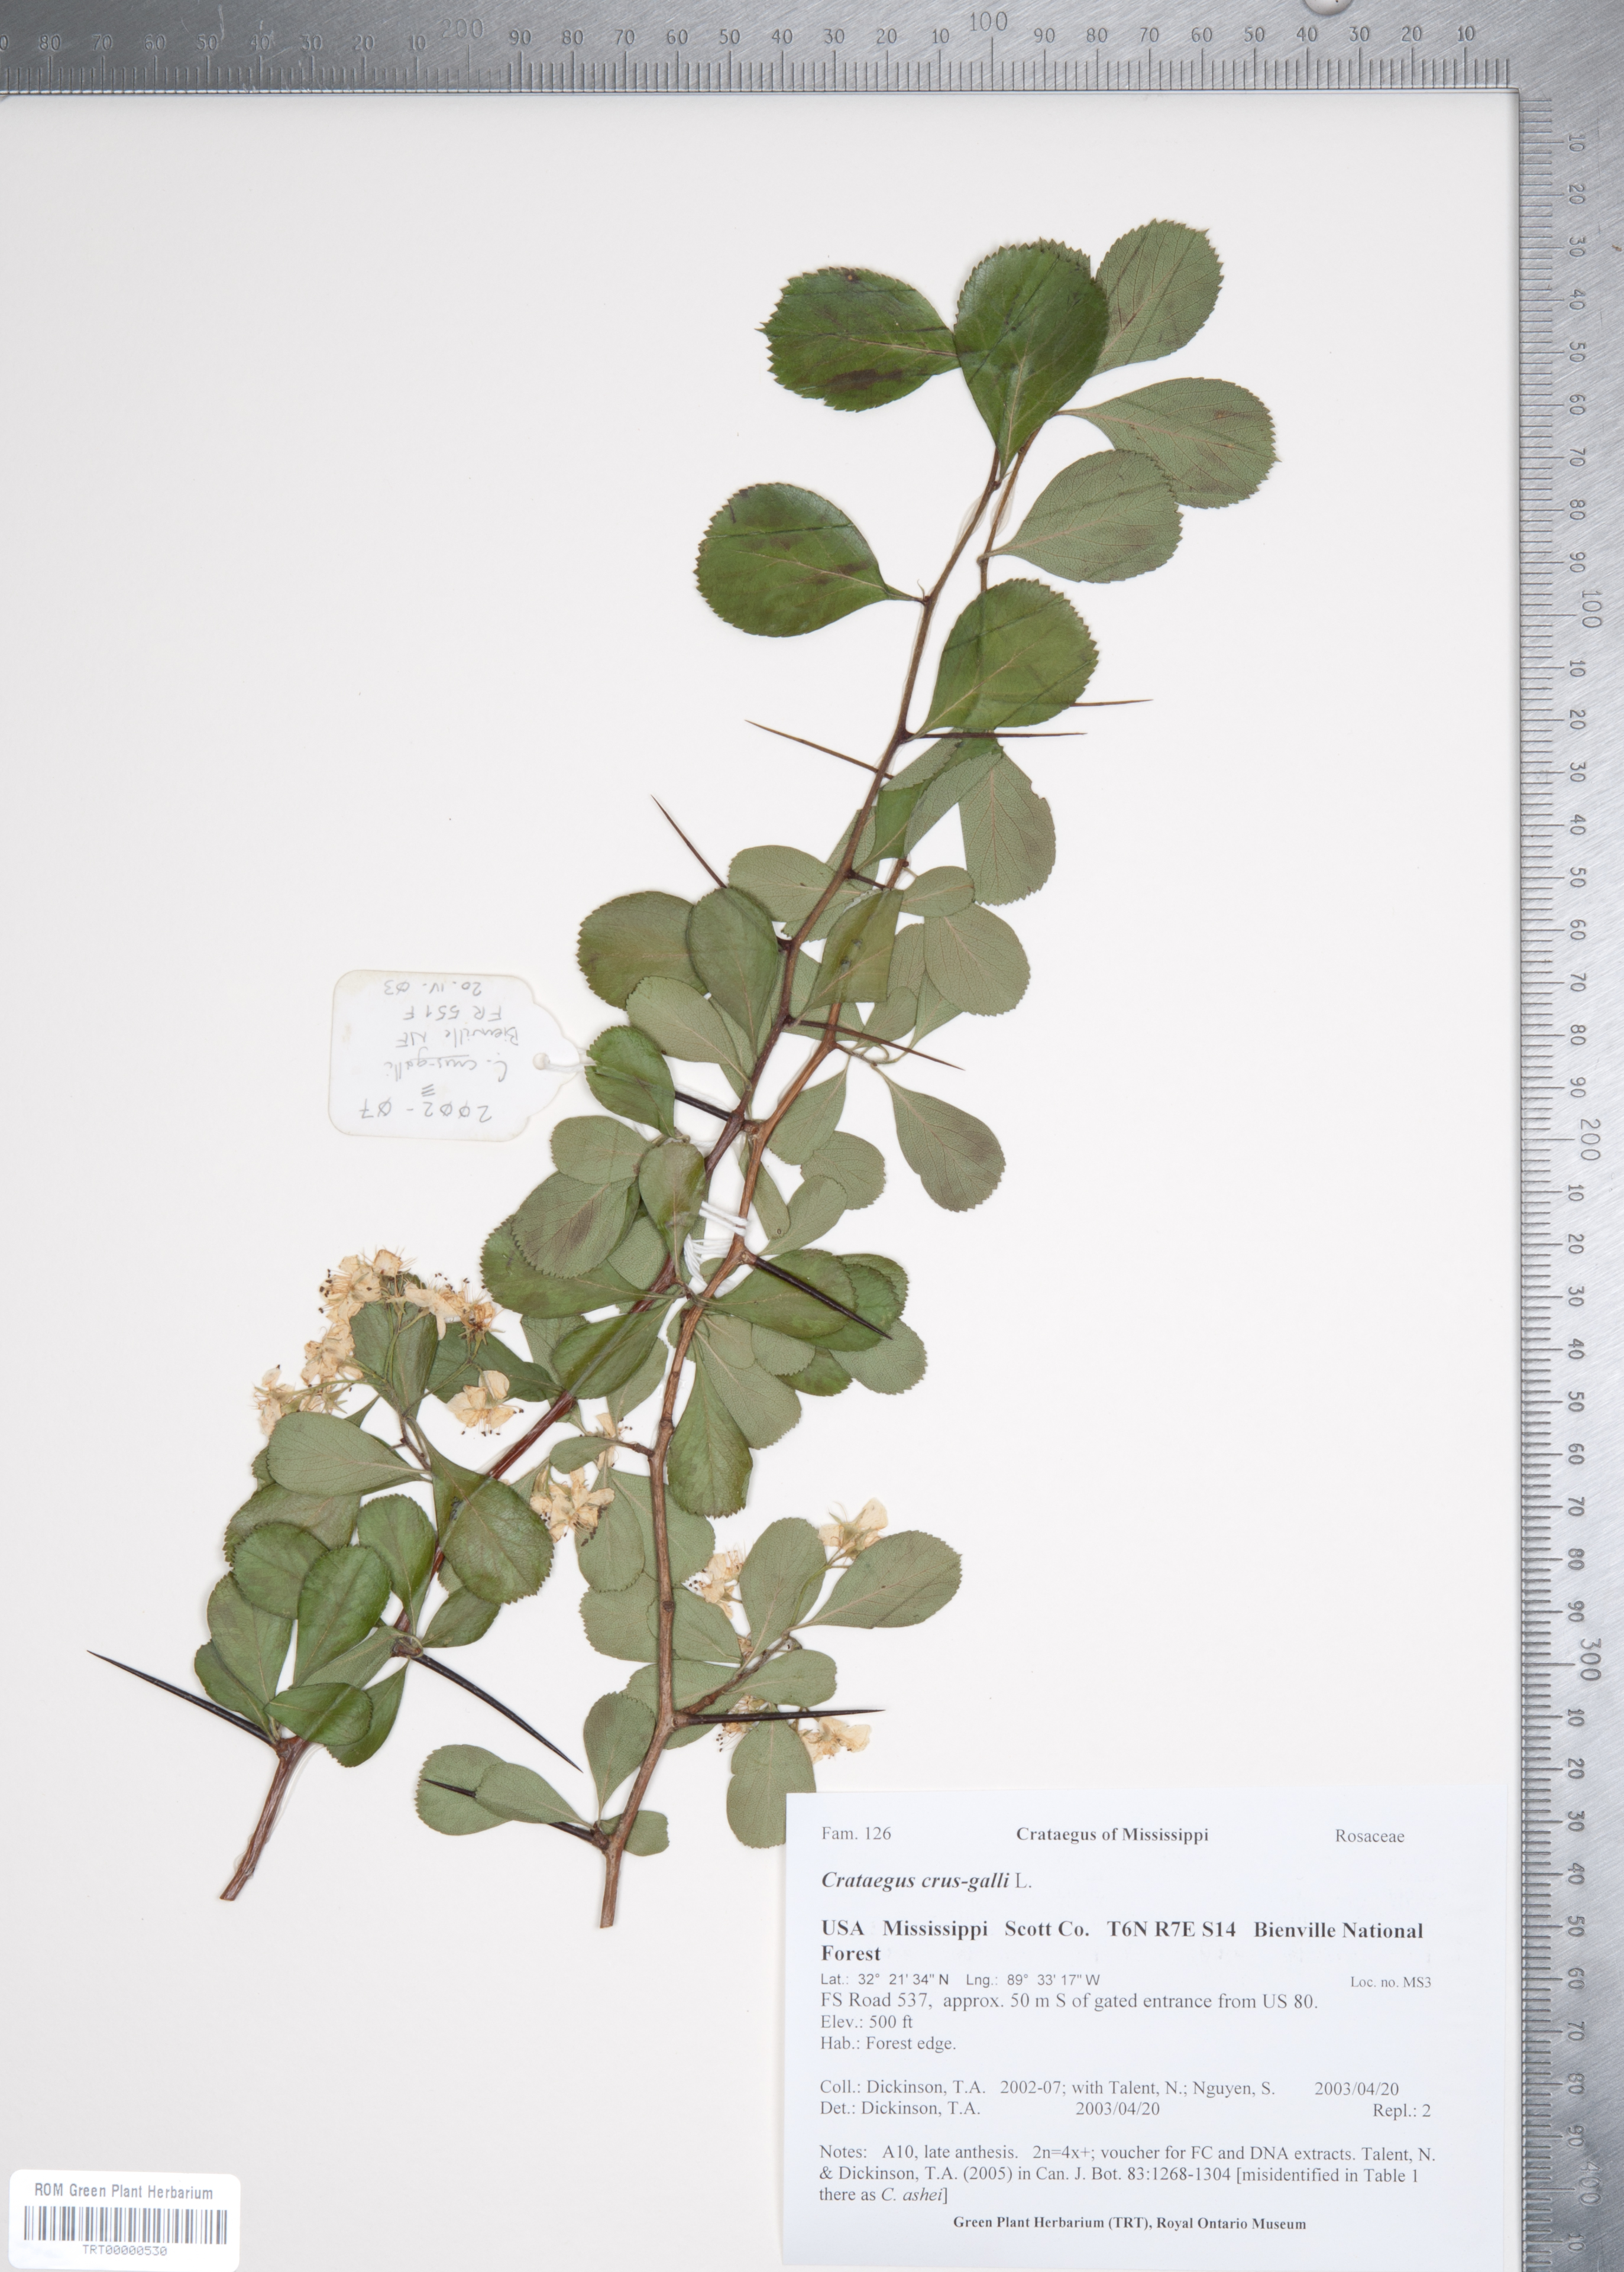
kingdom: Plantae
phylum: Tracheophyta
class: Magnoliopsida
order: Rosales
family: Rosaceae
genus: Crataegus
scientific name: Crataegus crus-galli
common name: Cockspurthorn
